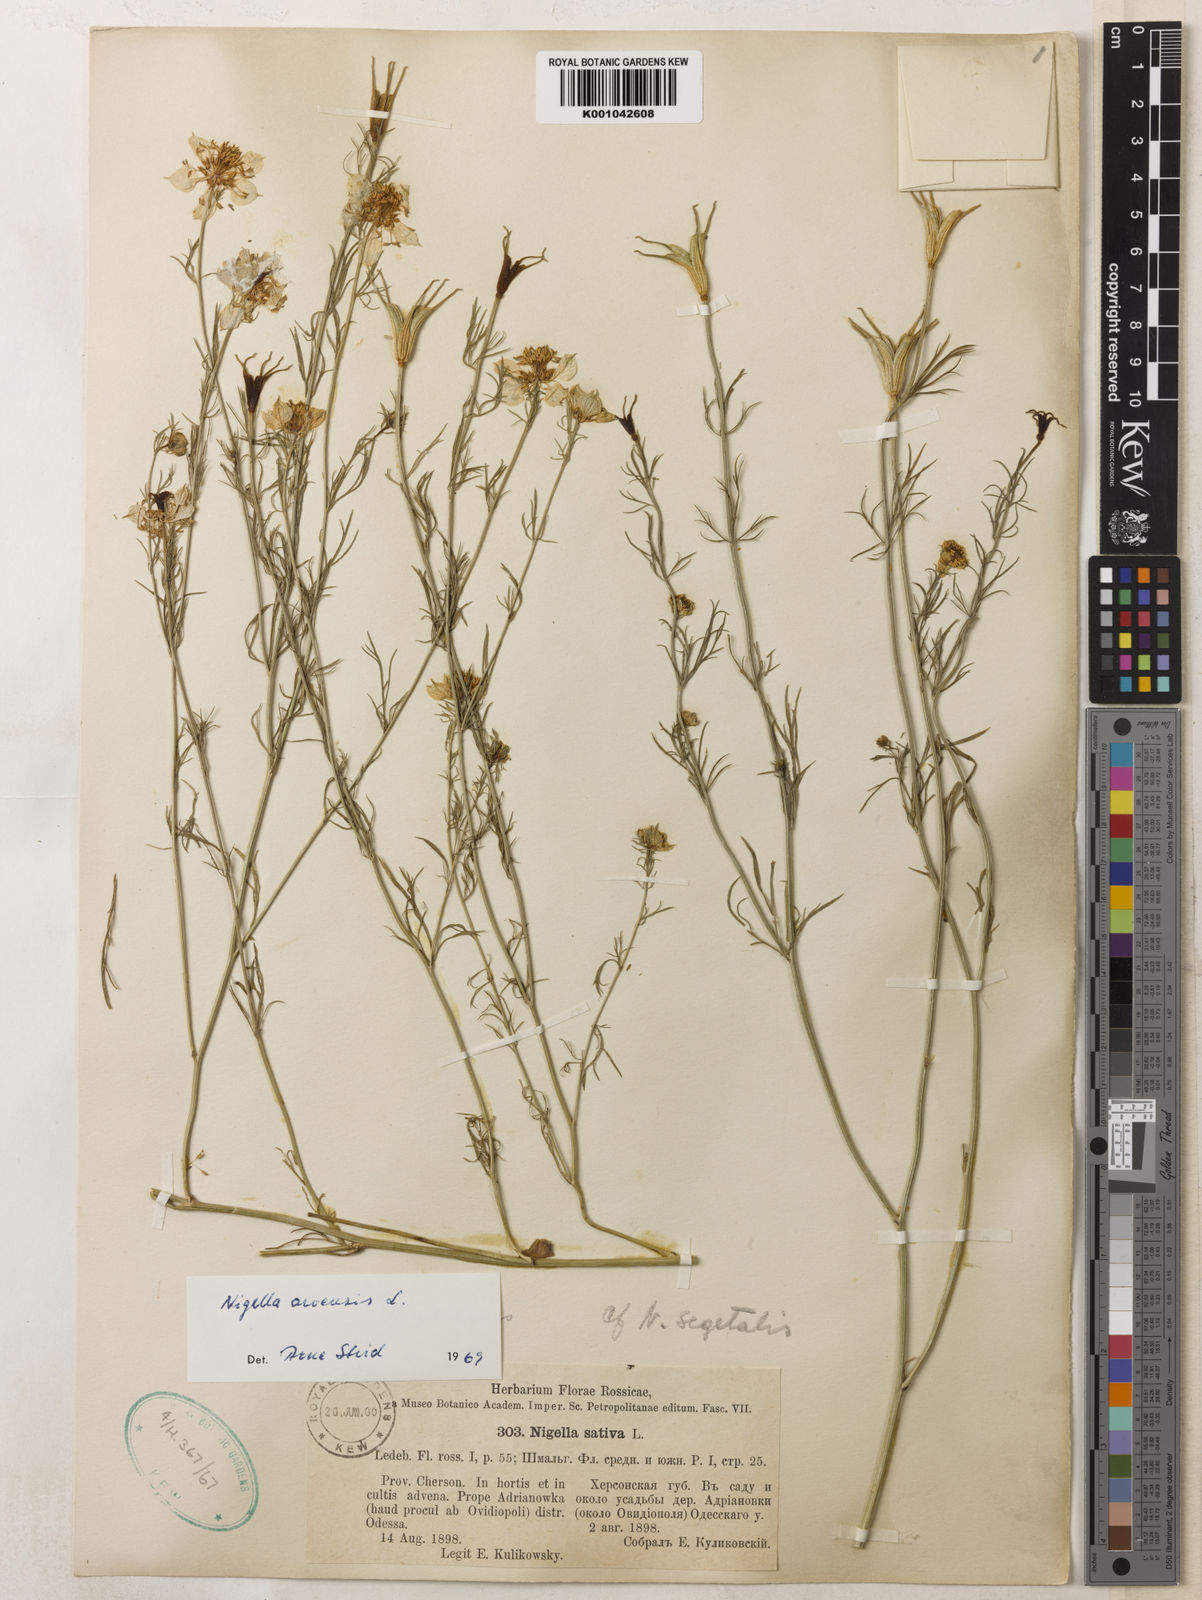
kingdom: Plantae
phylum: Tracheophyta
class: Magnoliopsida
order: Ranunculales
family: Ranunculaceae
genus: Nigella
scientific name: Nigella arvensis
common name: Wild fennel-flower
